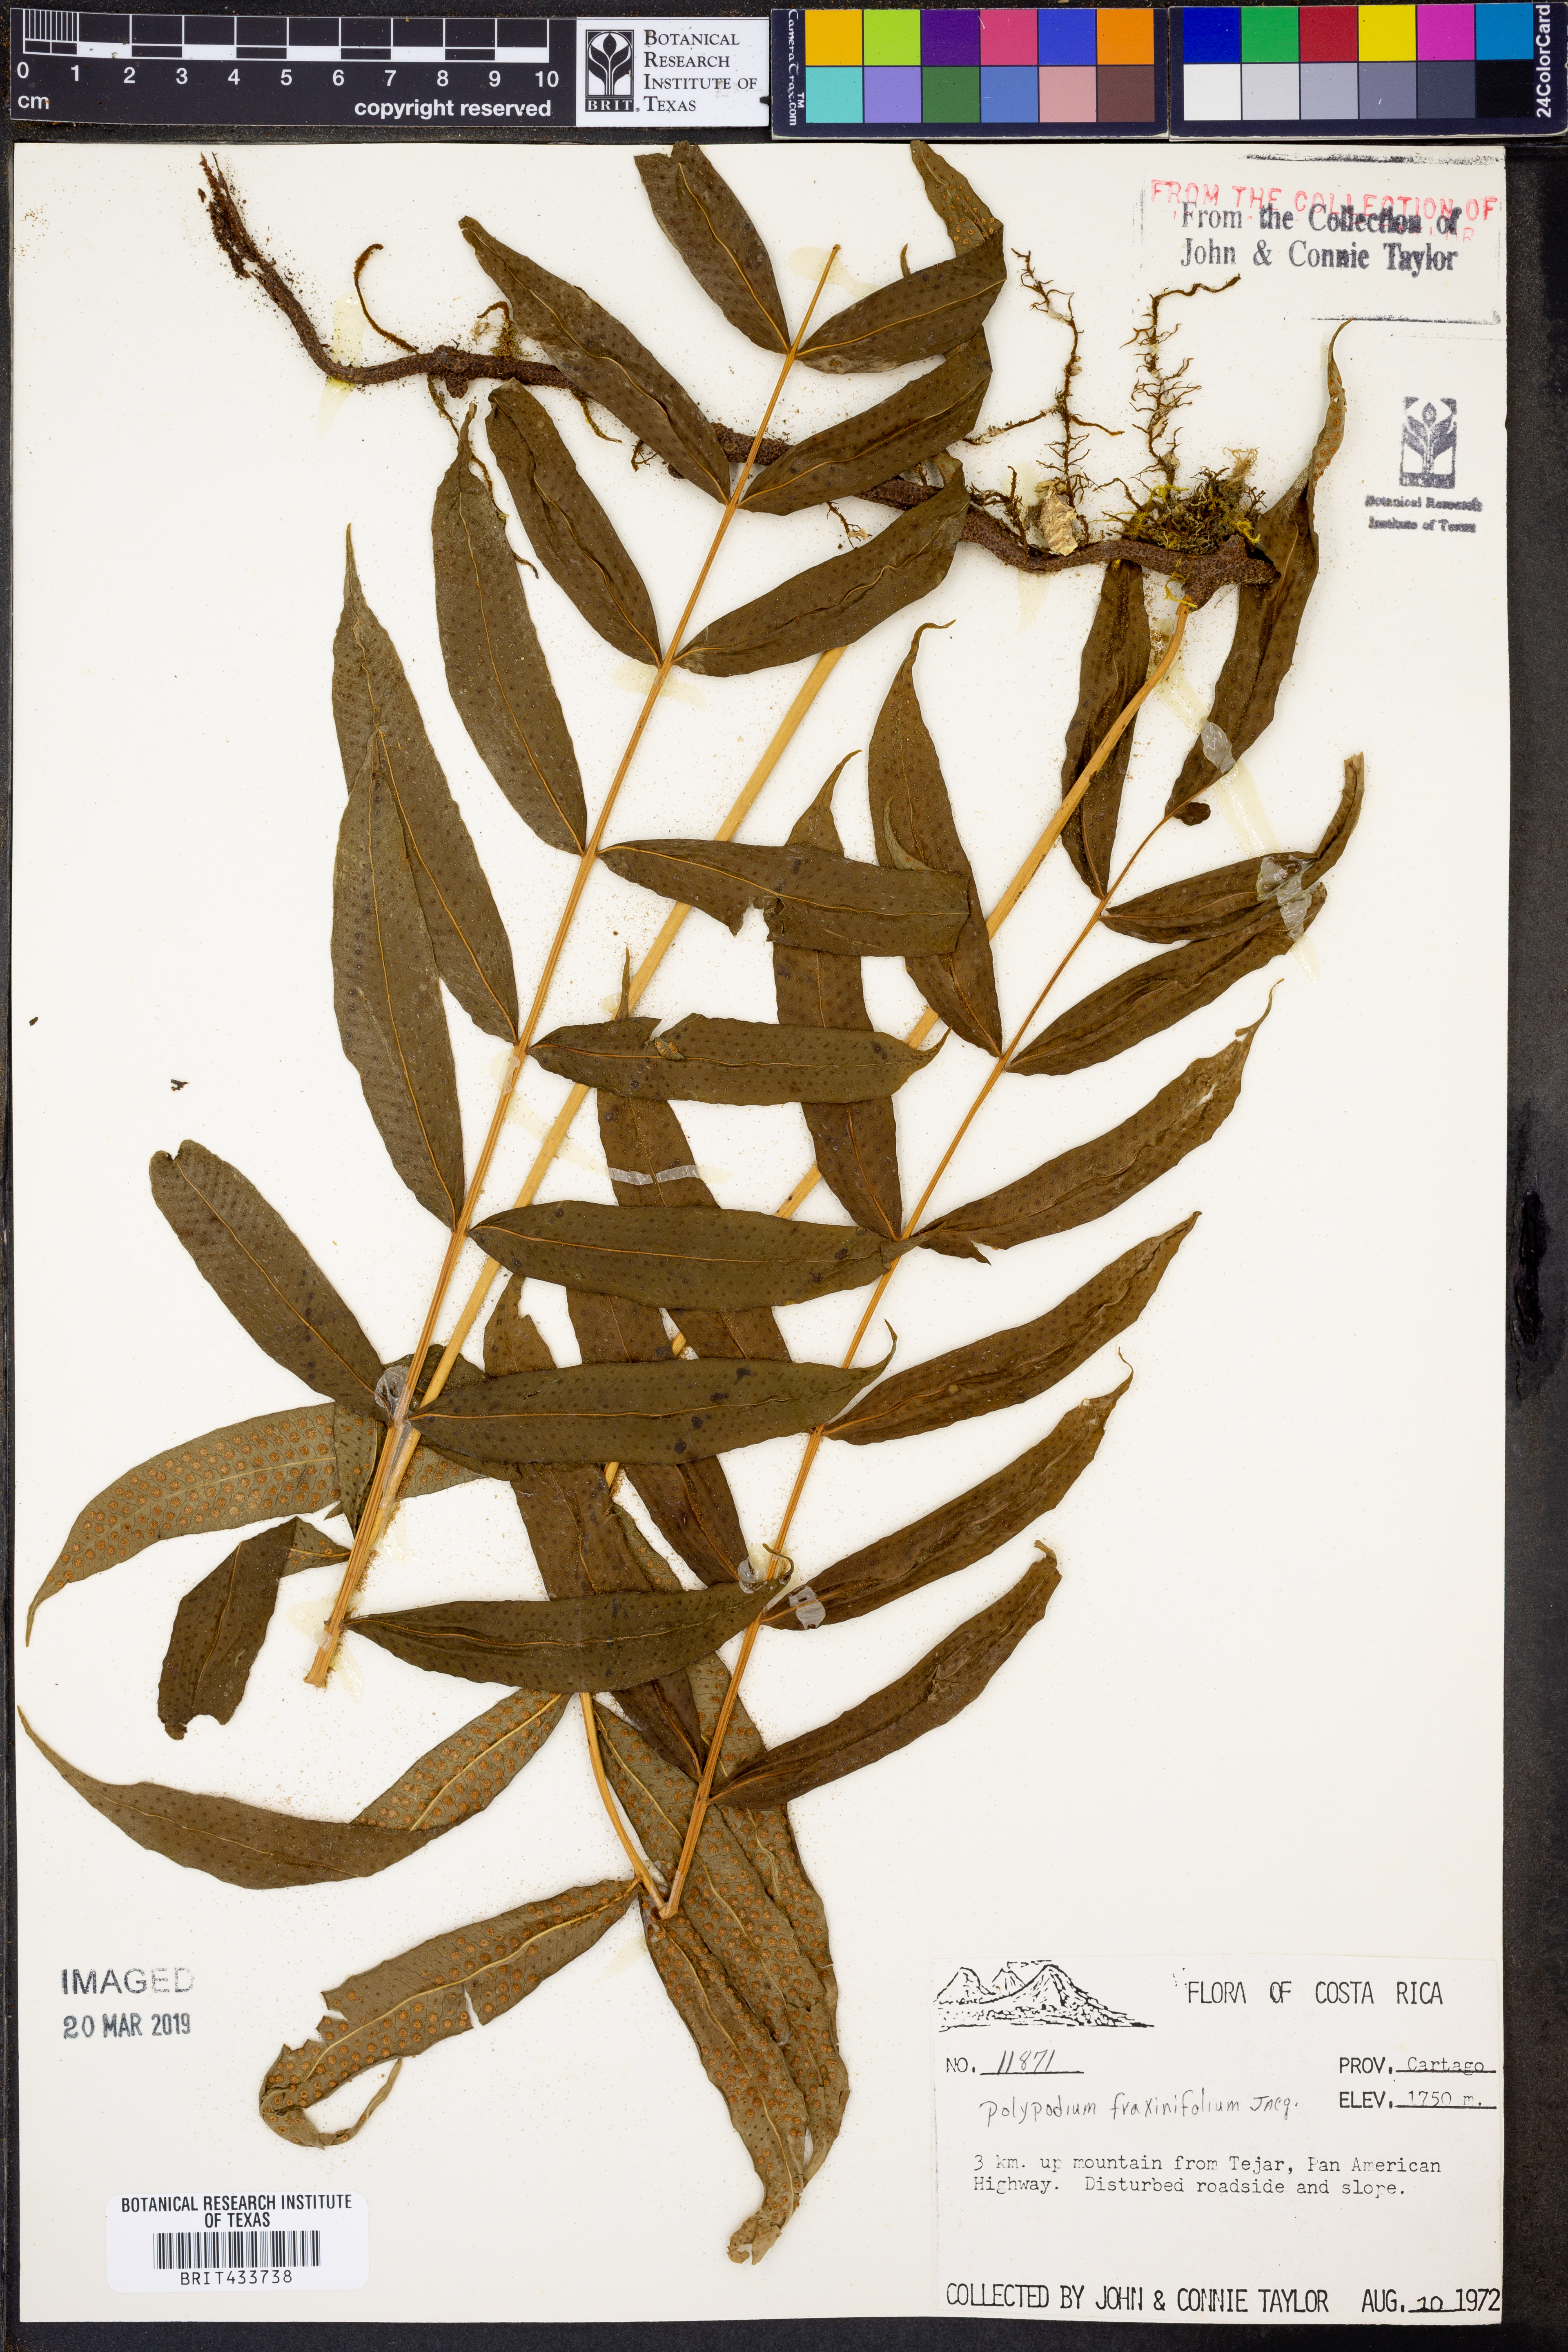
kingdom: Plantae
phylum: Tracheophyta
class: Polypodiopsida
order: Polypodiales
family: Polypodiaceae
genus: Serpocaulon
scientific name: Serpocaulon fraxinifolium
